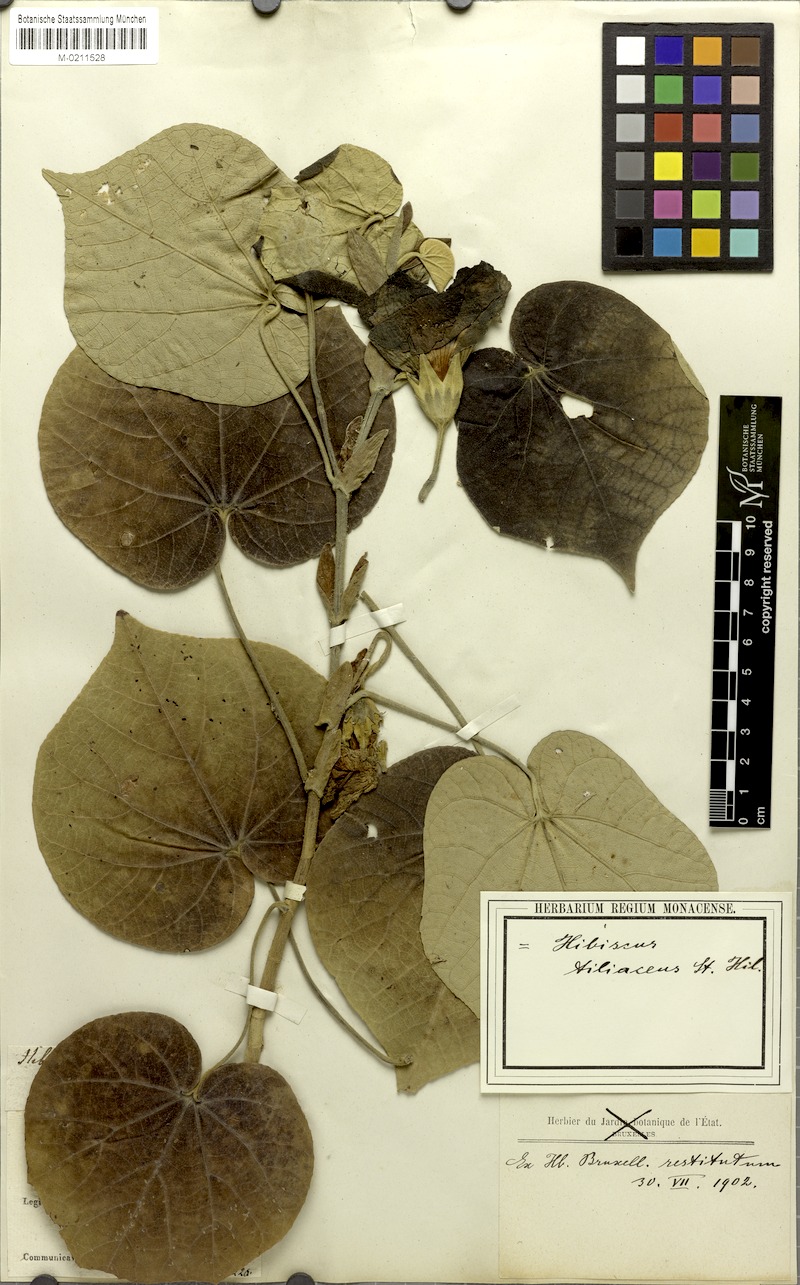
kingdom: Plantae
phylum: Tracheophyta
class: Magnoliopsida
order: Malvales
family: Malvaceae
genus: Talipariti
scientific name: Talipariti tiliaceum
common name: Sea hibiscus
